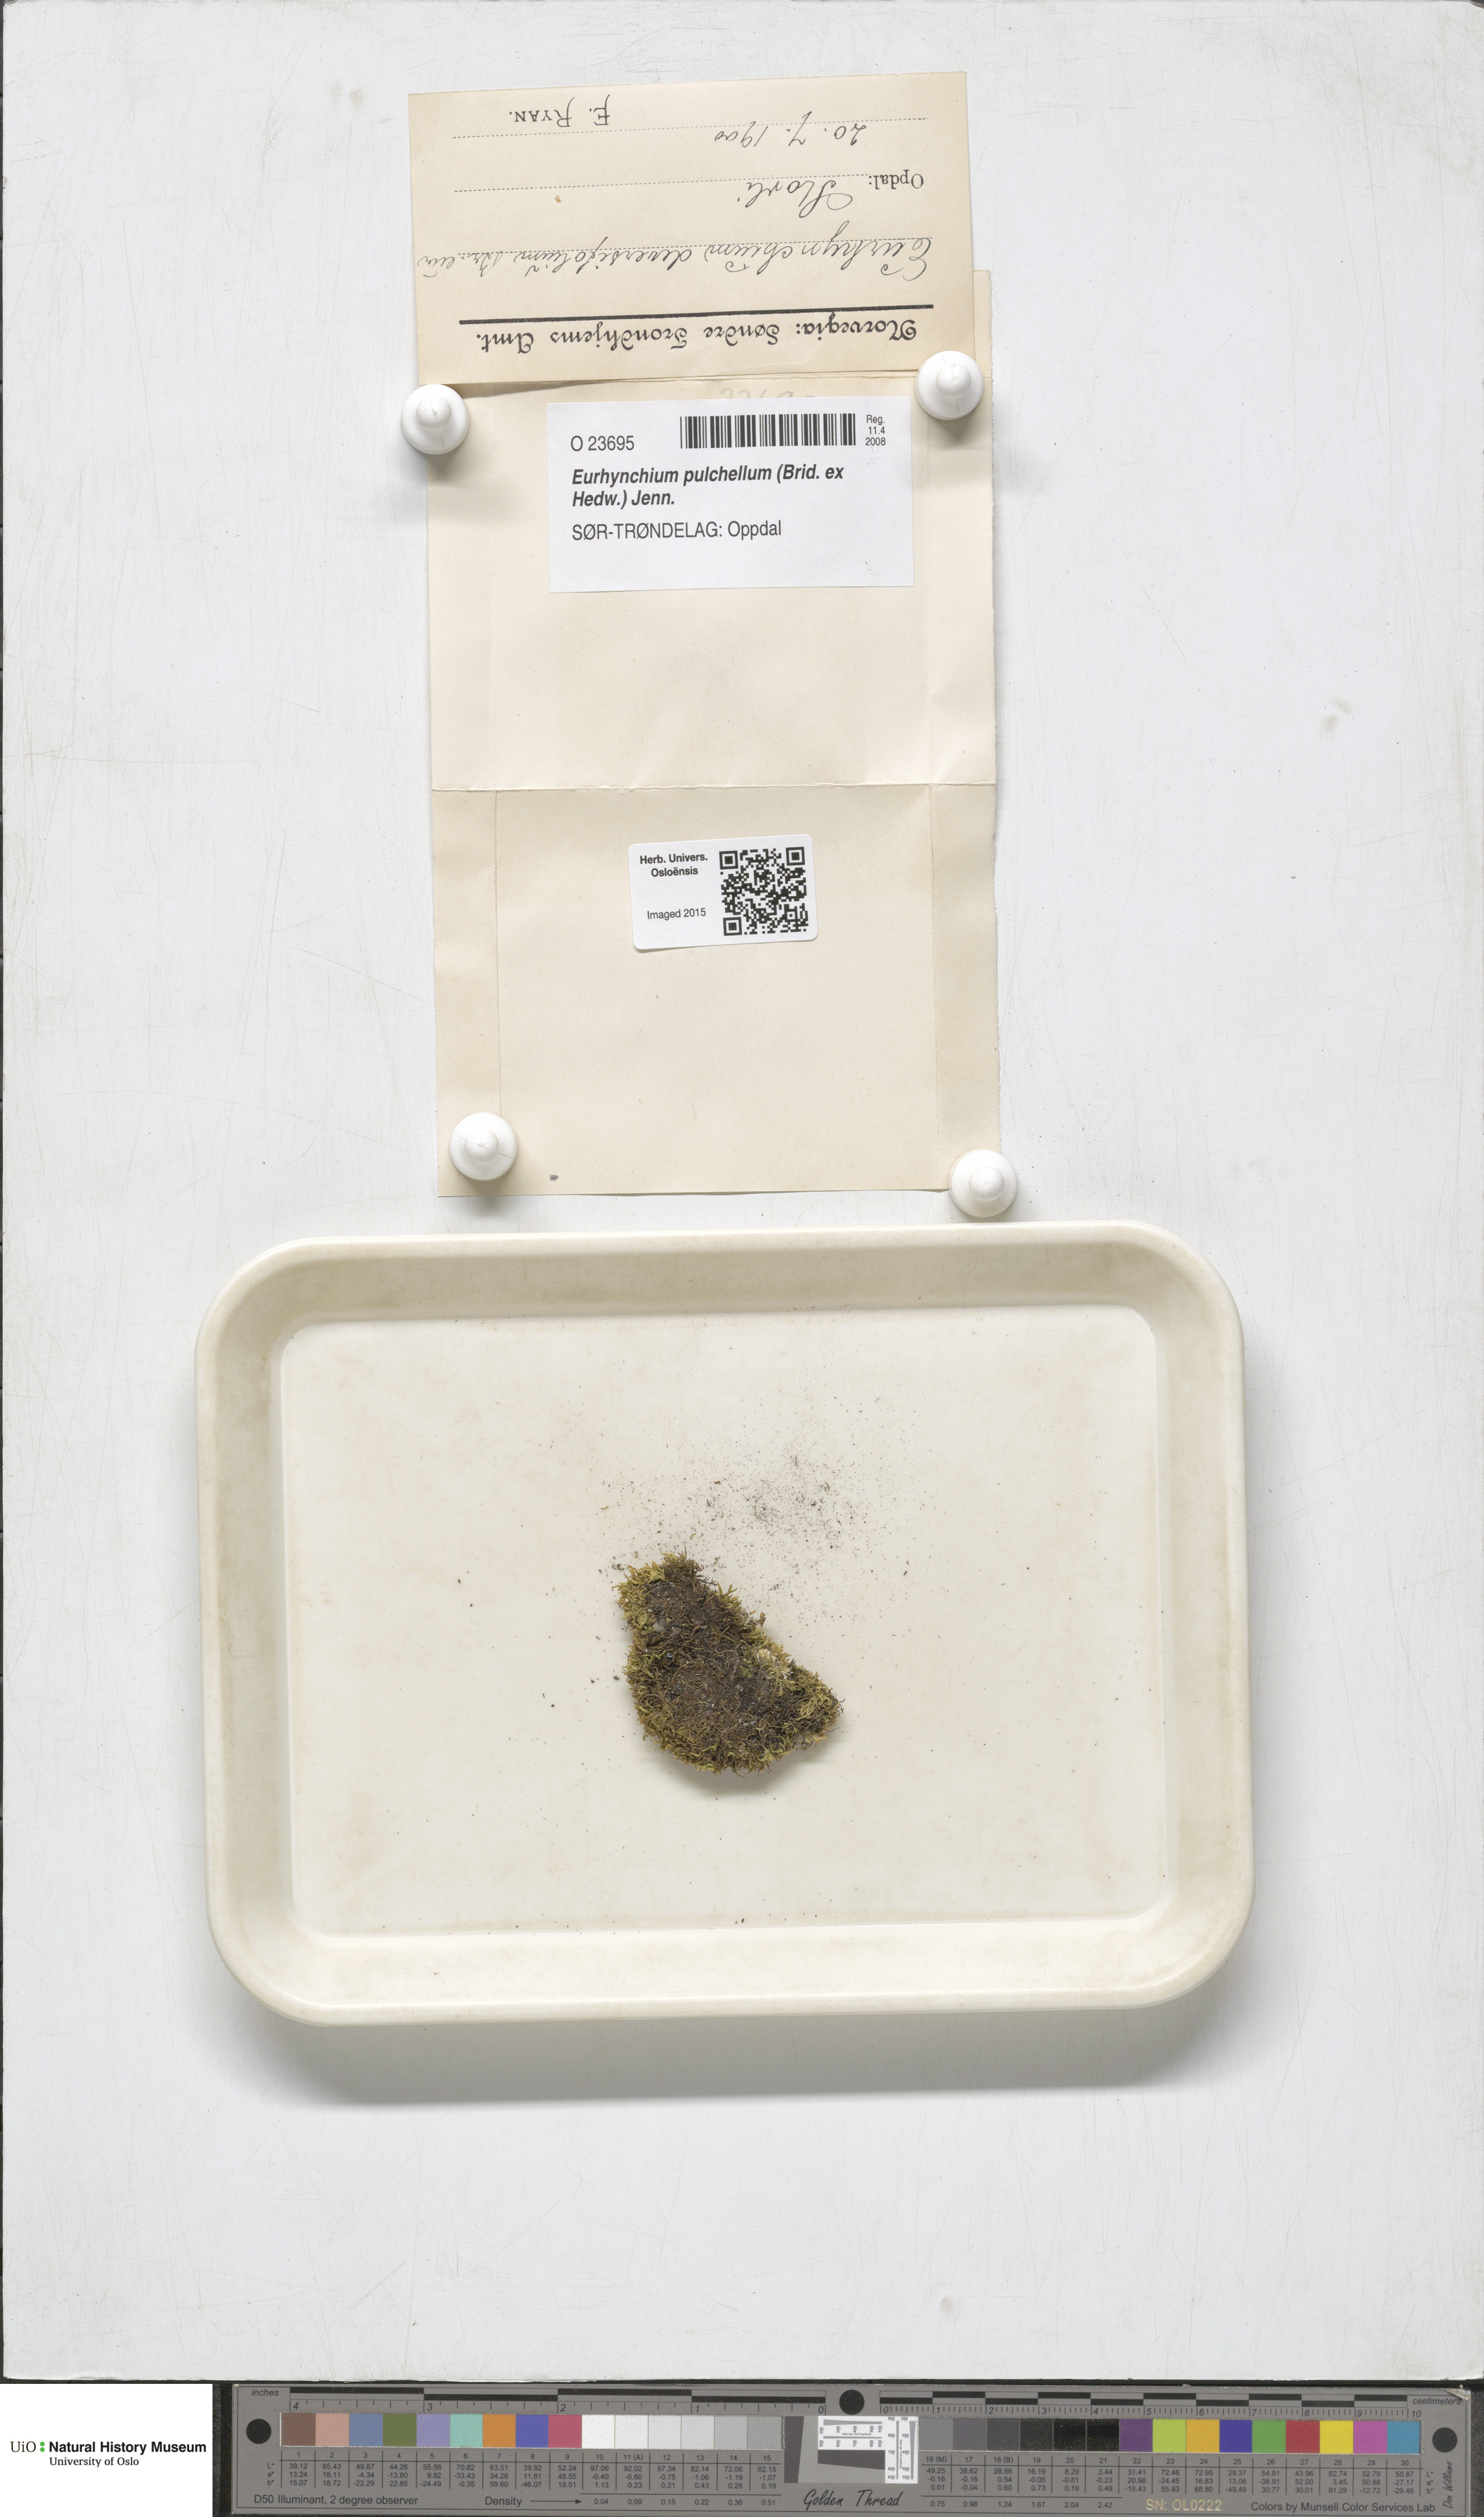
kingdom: Plantae
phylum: Bryophyta
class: Bryopsida
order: Hypnales
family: Brachytheciaceae
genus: Eurhynchiastrum
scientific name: Eurhynchiastrum diversifolium
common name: Elegant feather-moss
